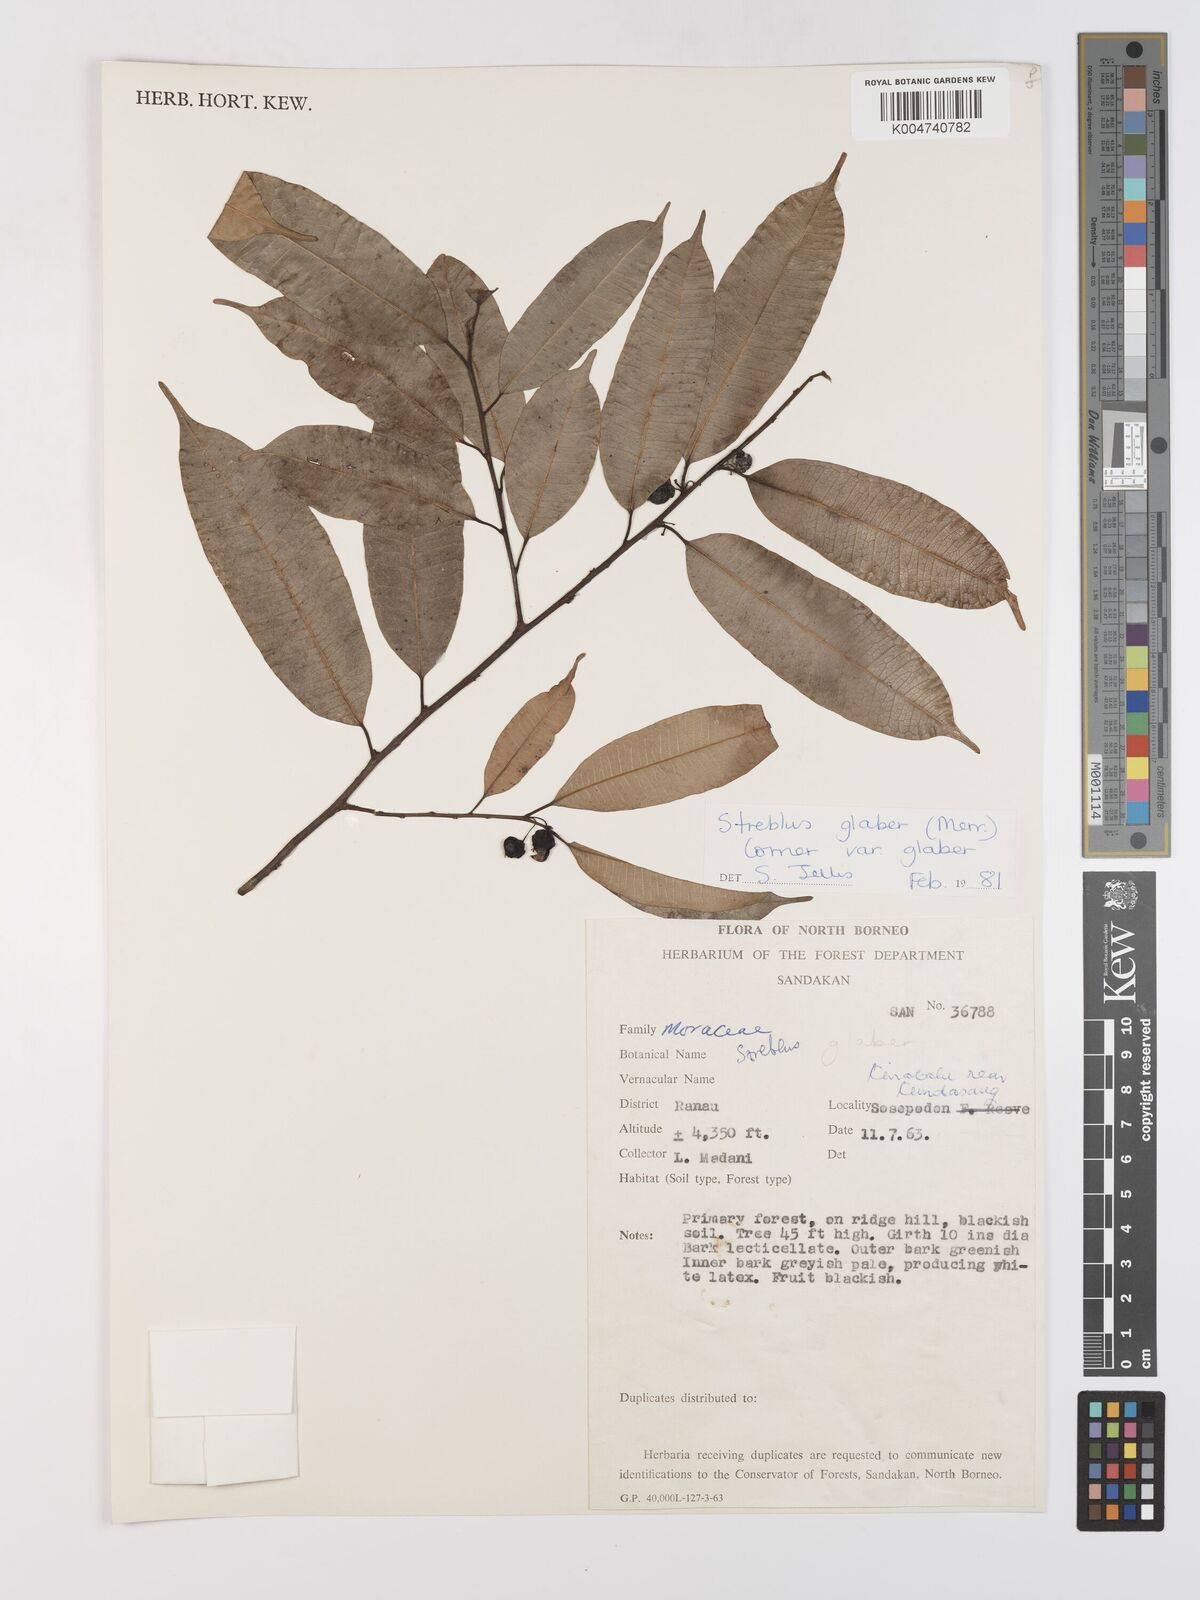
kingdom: Plantae
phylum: Tracheophyta
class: Magnoliopsida
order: Rosales
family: Moraceae
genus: Paratrophis
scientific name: Paratrophis glabra
